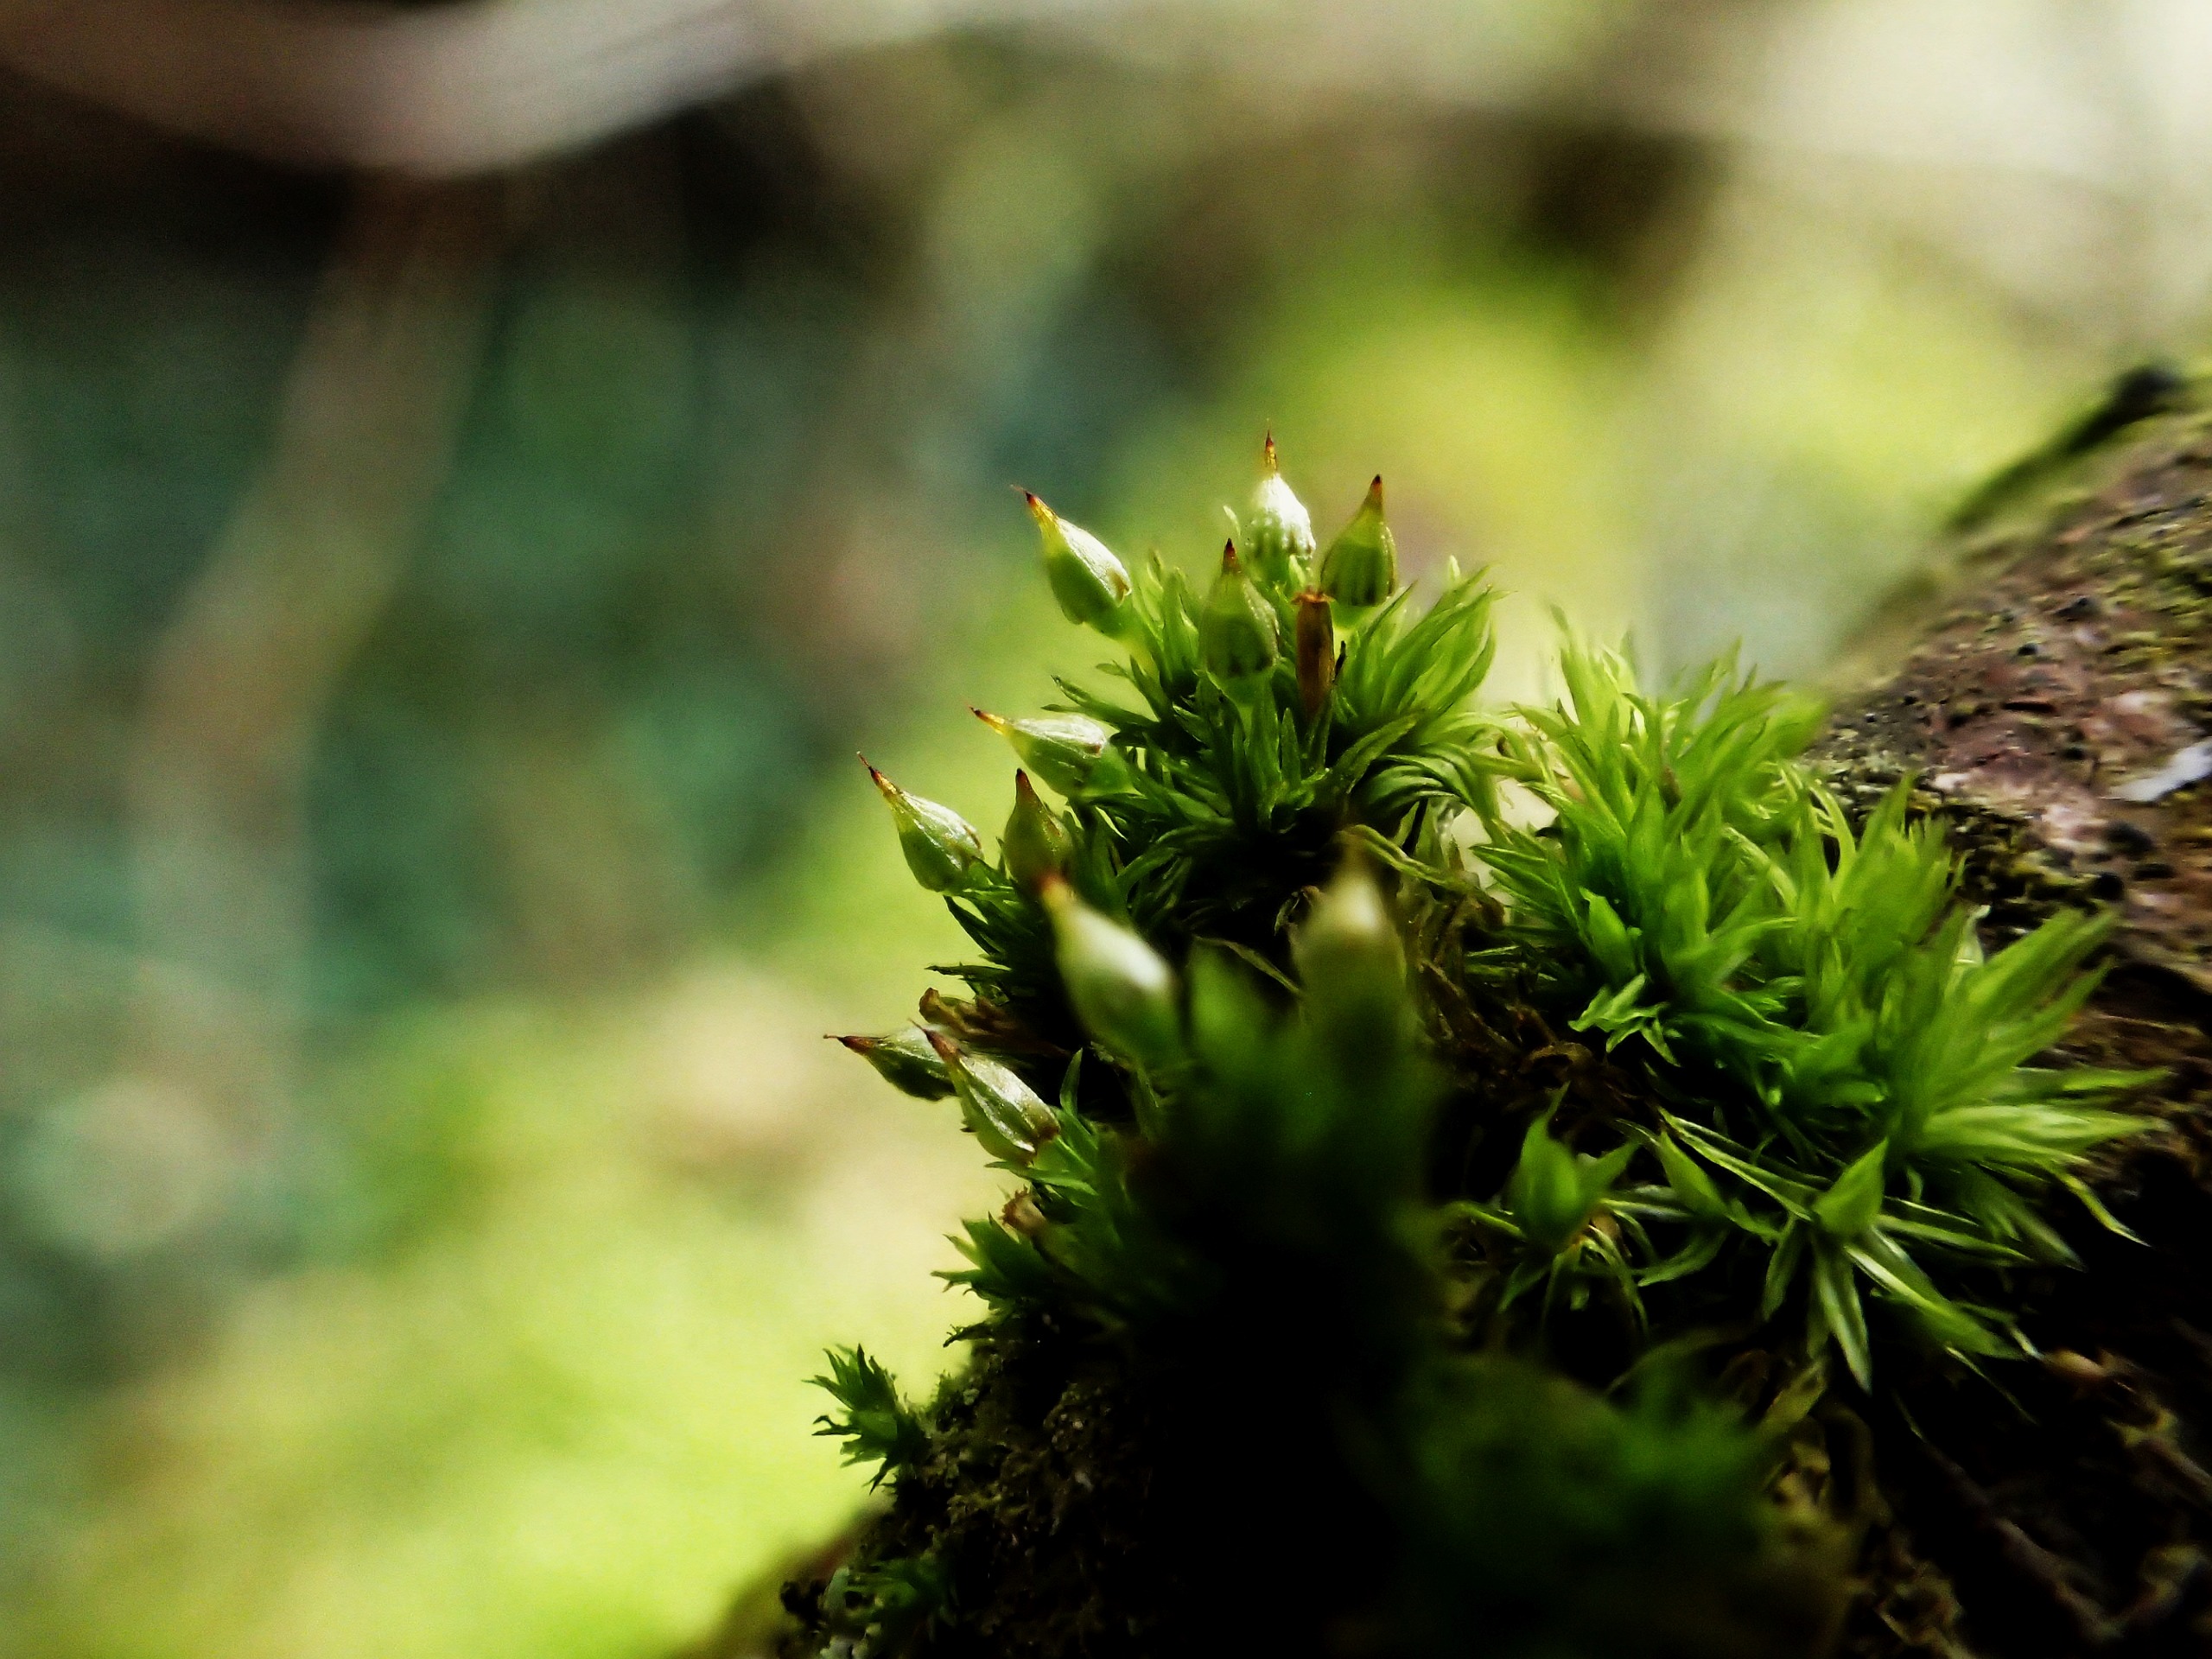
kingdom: Plantae
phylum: Bryophyta
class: Bryopsida
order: Orthotrichales
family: Orthotrichaceae
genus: Orthotrichum
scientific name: Orthotrichum pulchellum
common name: Smuk furehætte
